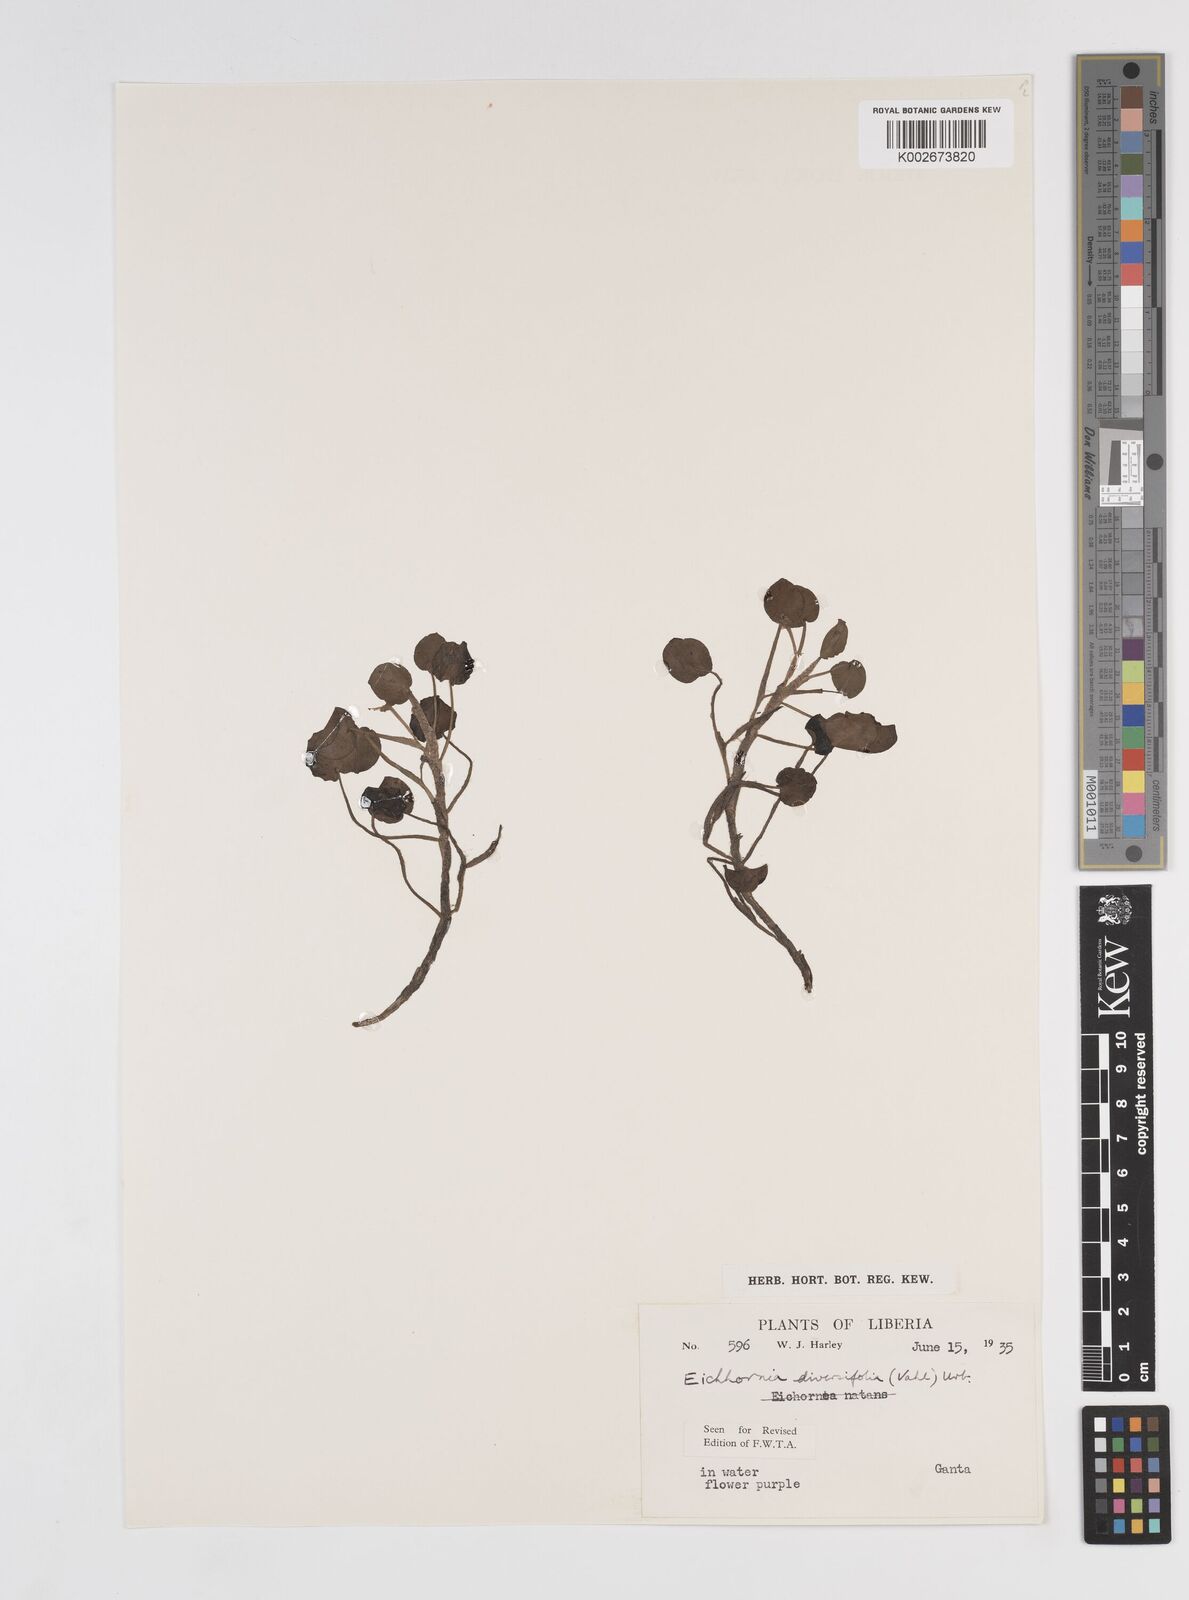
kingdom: Plantae
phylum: Tracheophyta
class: Liliopsida
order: Commelinales
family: Pontederiaceae
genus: Pontederia
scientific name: Pontederia diversifolia
